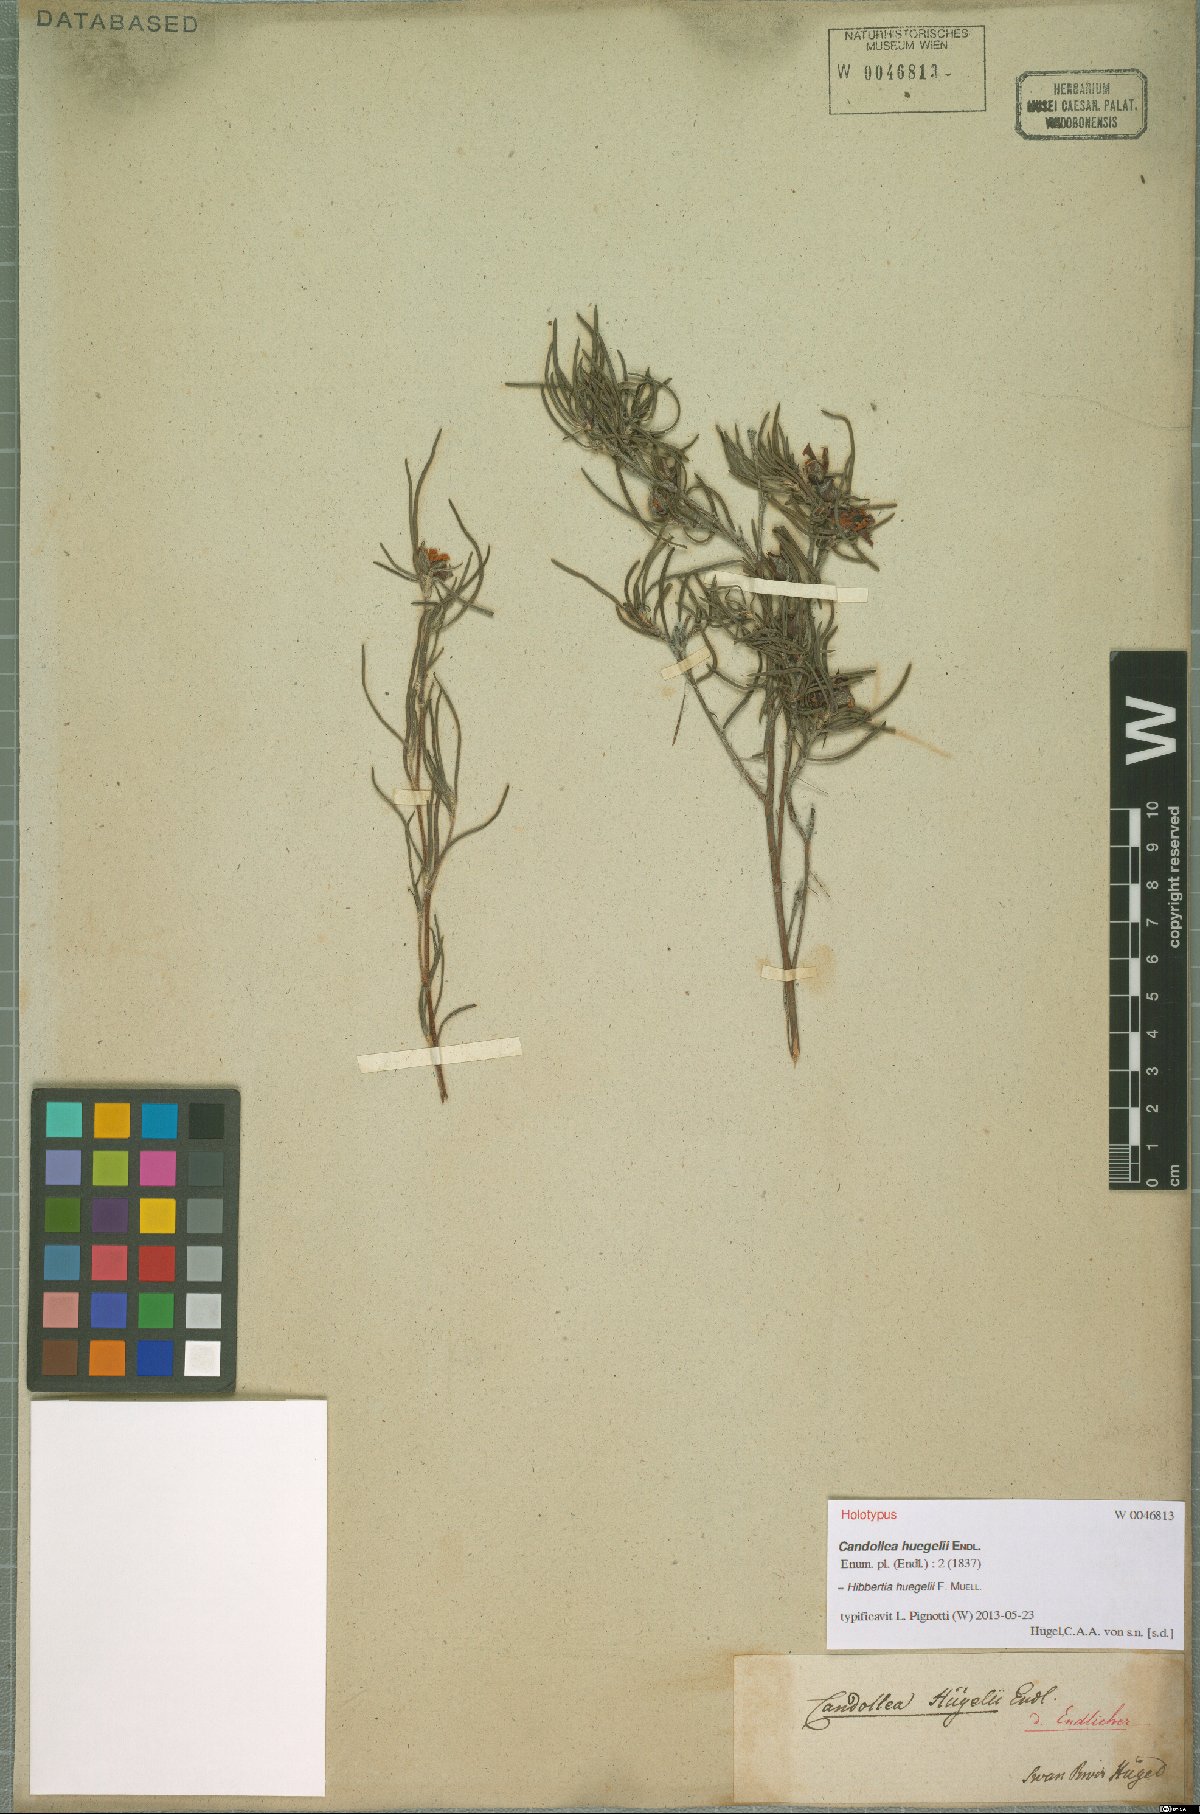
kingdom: Plantae
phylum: Tracheophyta
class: Magnoliopsida
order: Dilleniales
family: Dilleniaceae
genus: Hibbertia
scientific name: Hibbertia huegelii
